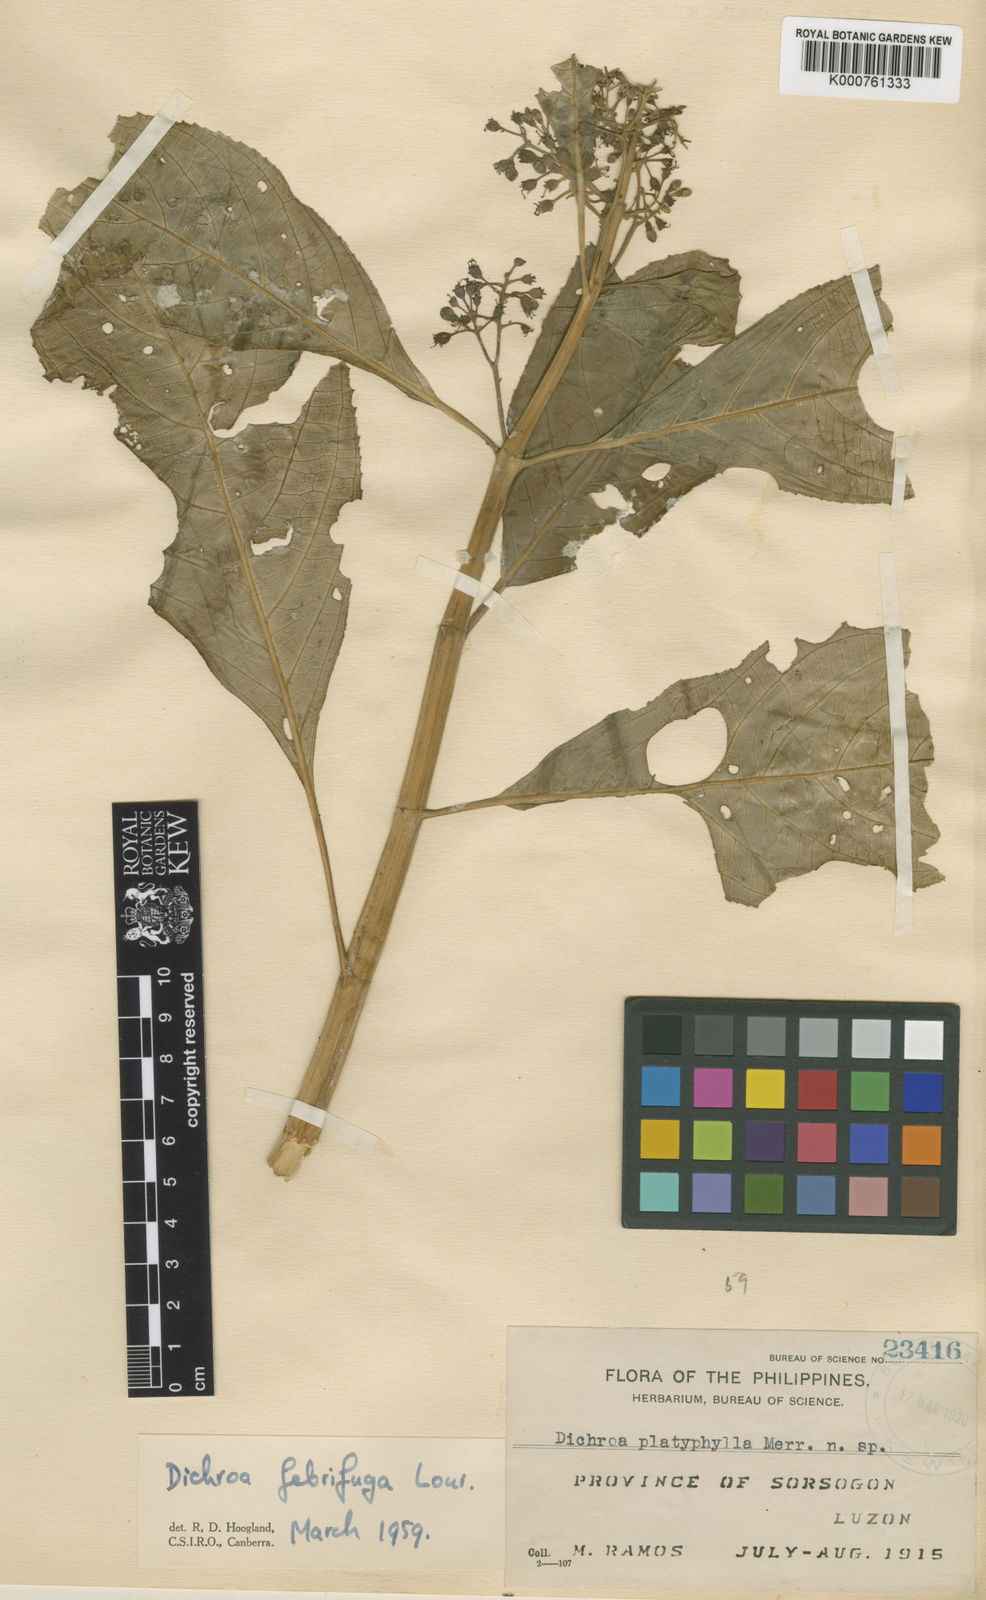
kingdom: Plantae
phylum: Tracheophyta
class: Magnoliopsida
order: Cornales
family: Hydrangeaceae
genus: Hydrangea
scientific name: Hydrangea ofeliae
